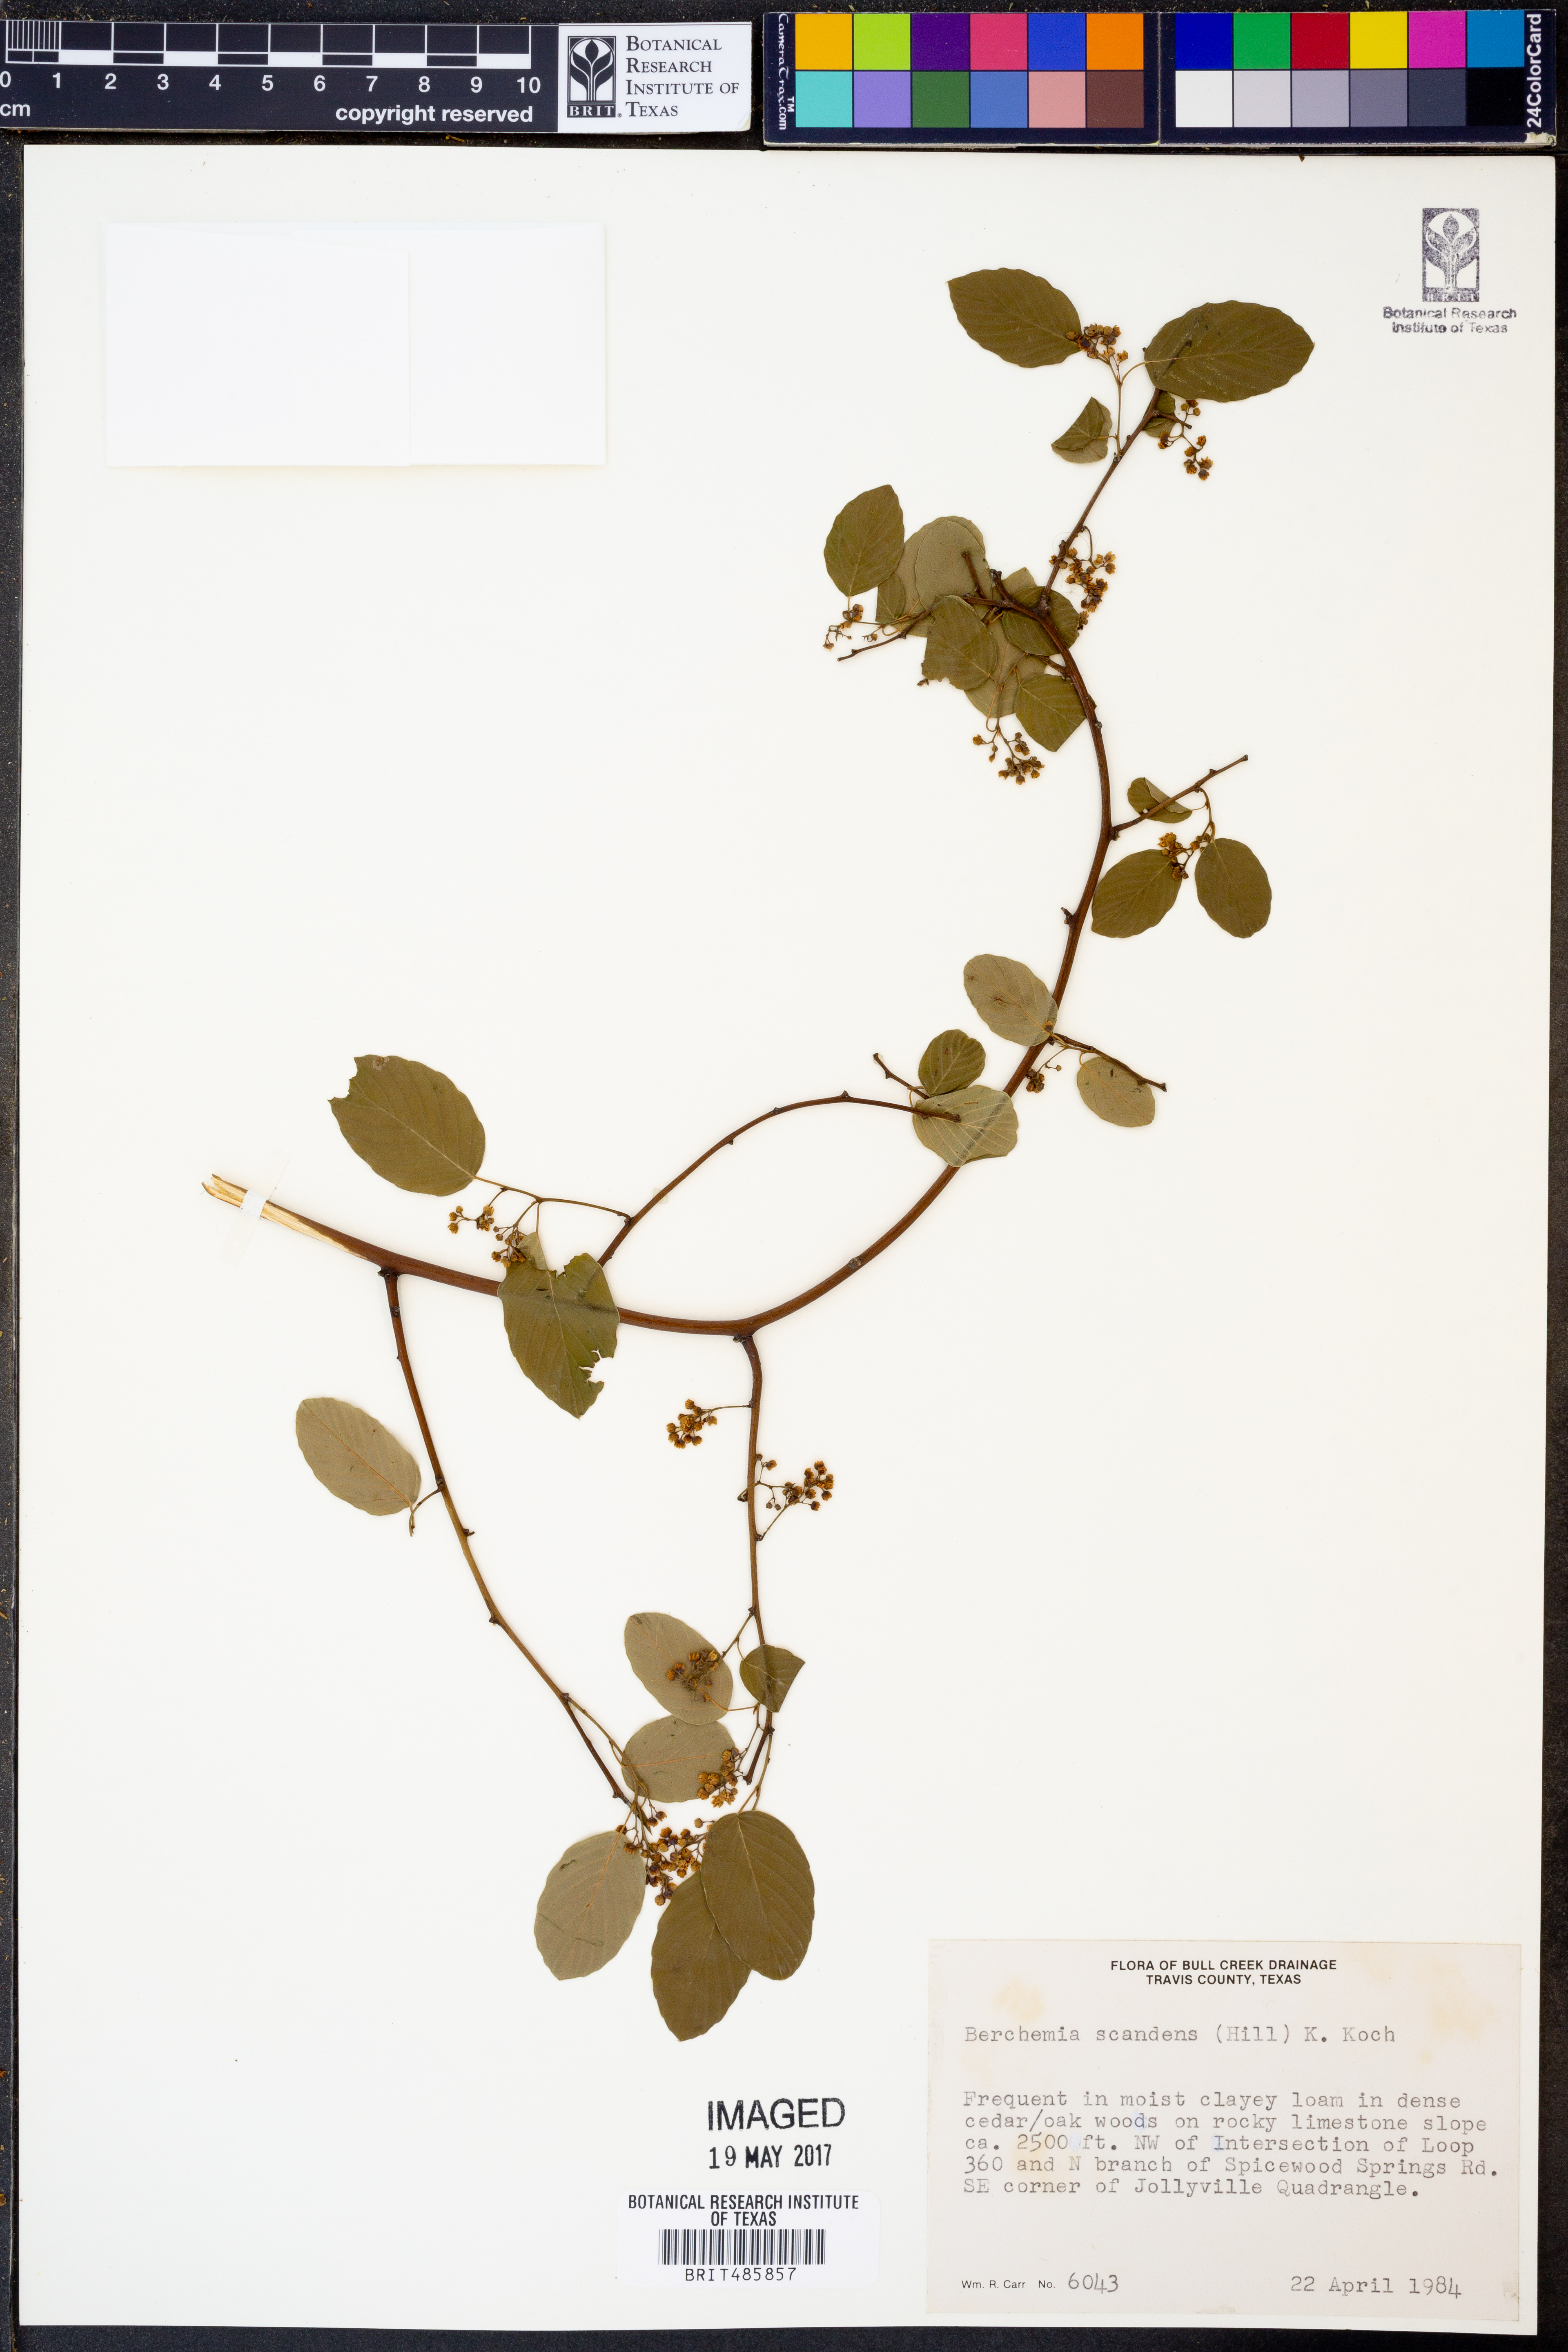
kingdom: Plantae
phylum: Tracheophyta
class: Magnoliopsida
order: Rosales
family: Rhamnaceae
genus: Berchemia
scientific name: Berchemia scandens
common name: Supplejack
